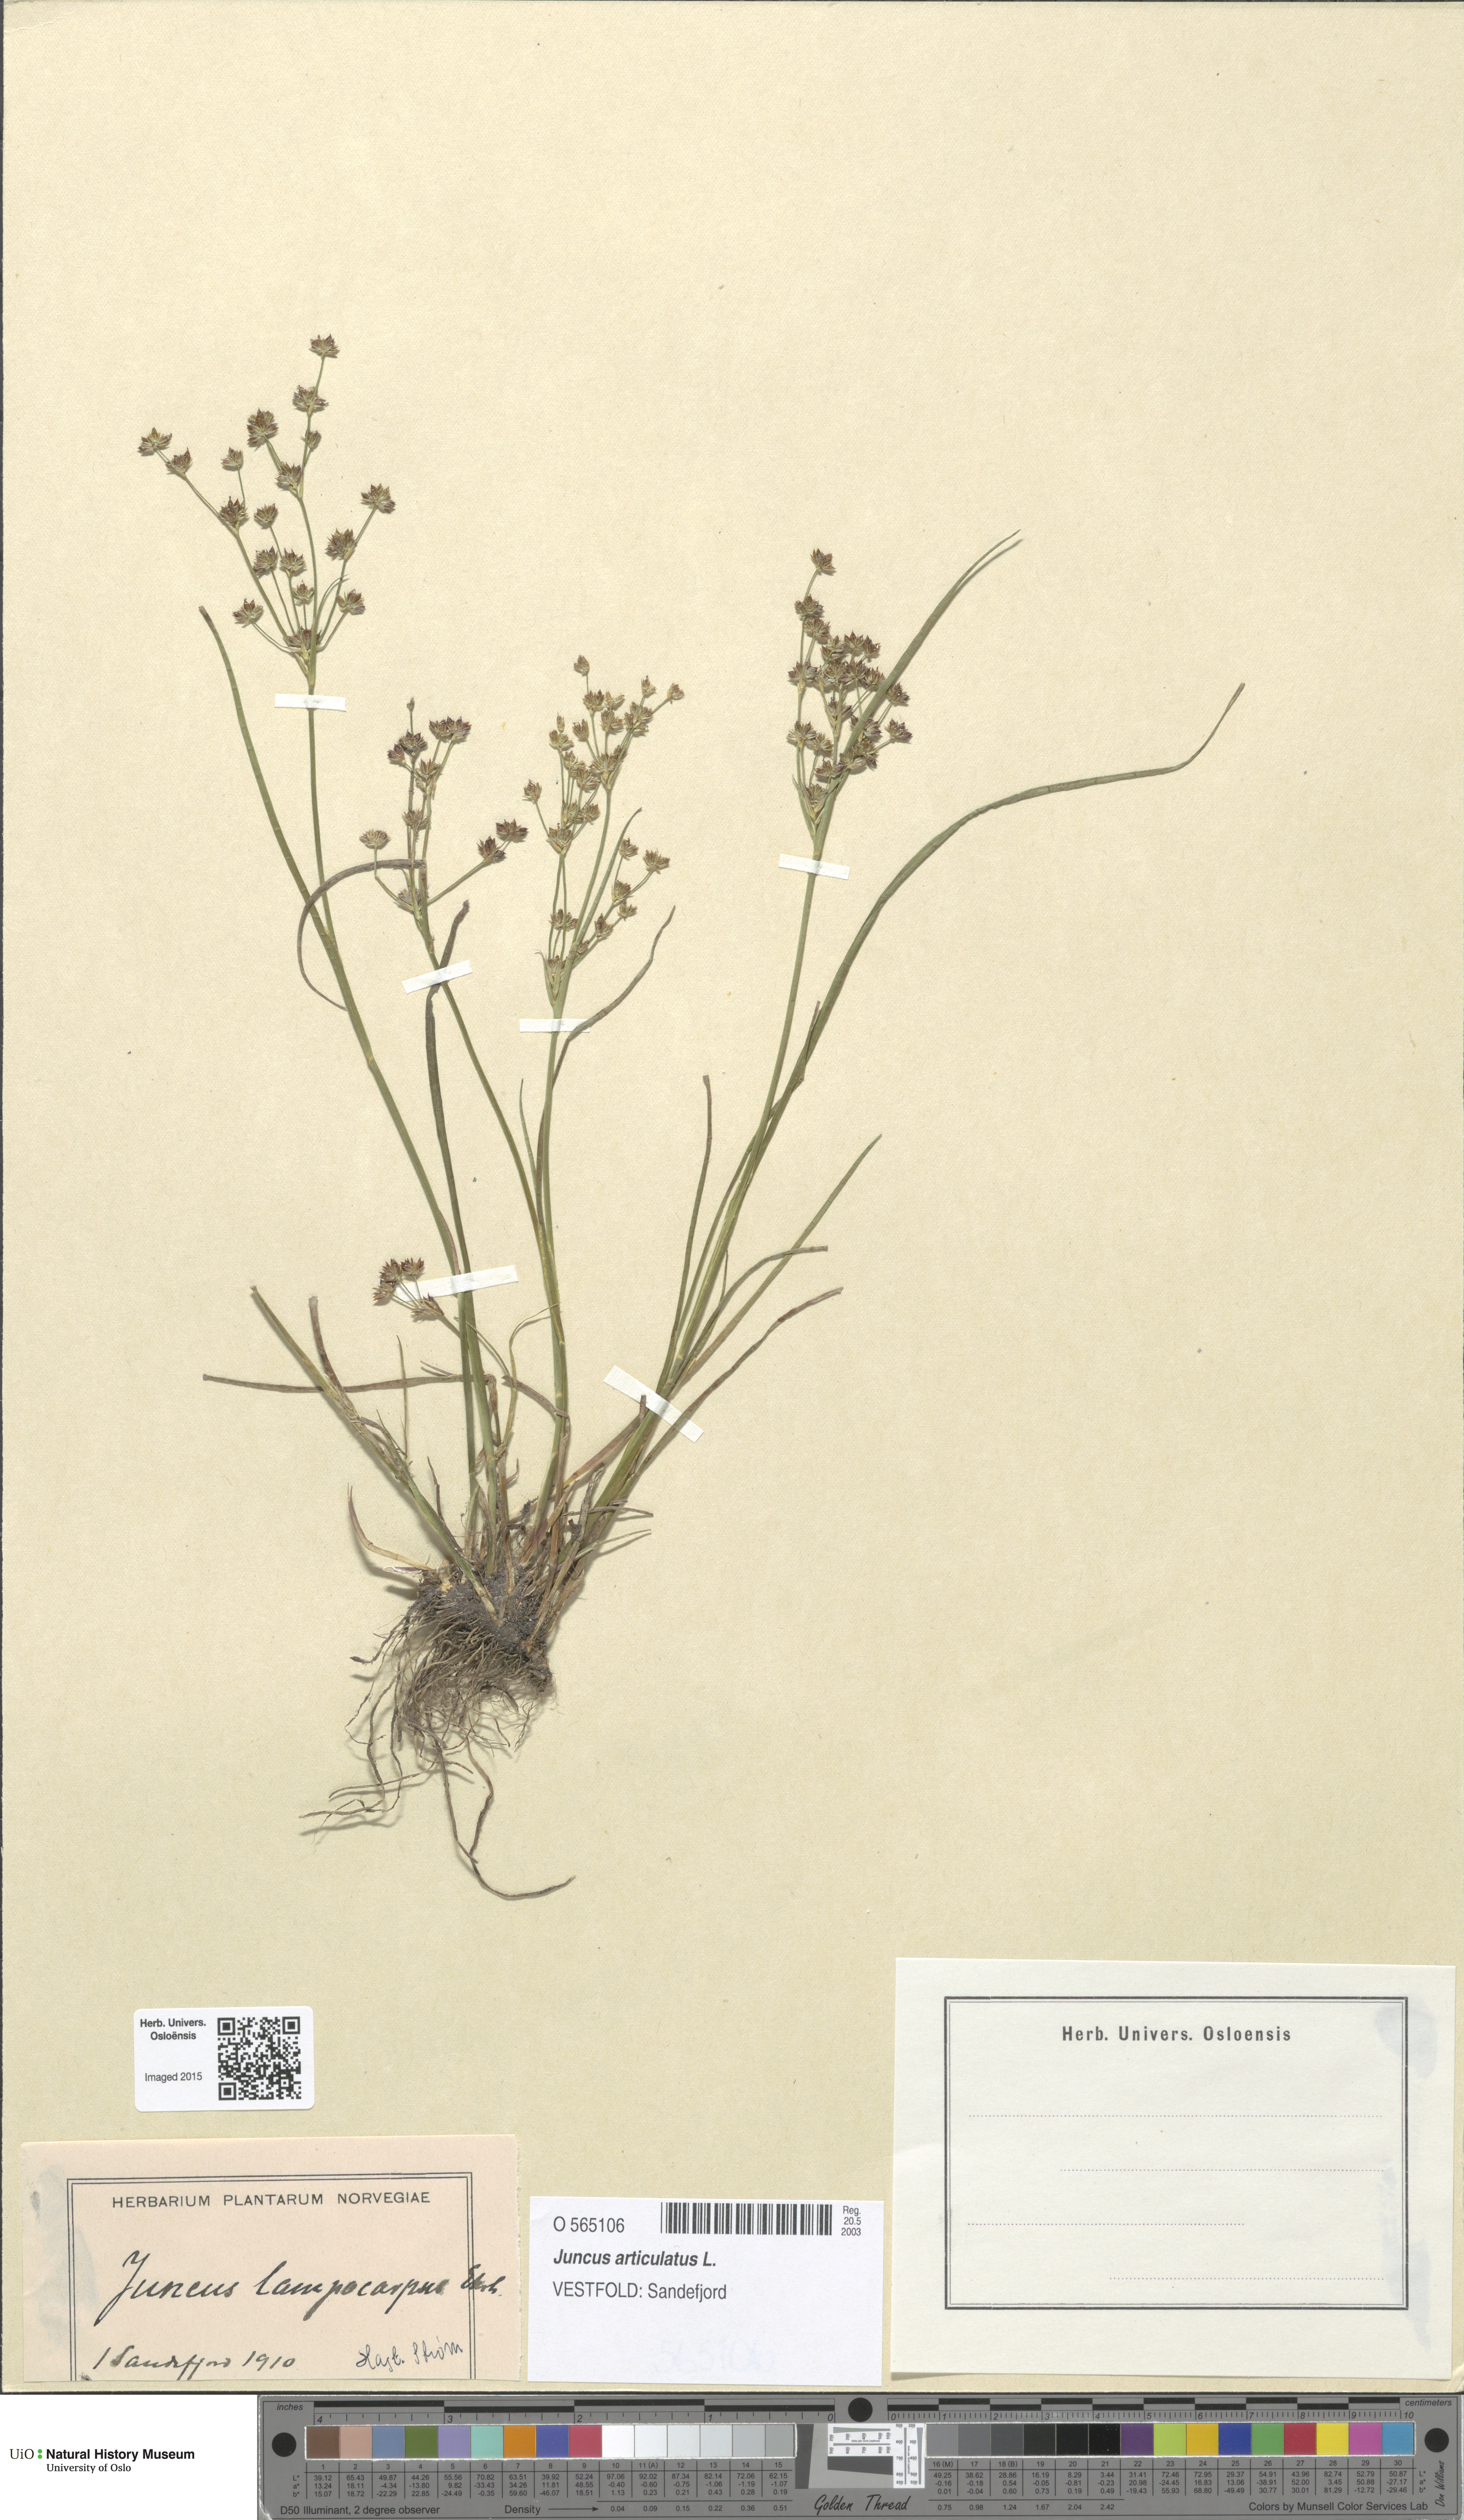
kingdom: Plantae
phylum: Tracheophyta
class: Liliopsida
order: Poales
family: Juncaceae
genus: Juncus
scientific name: Juncus articulatus
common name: Jointed rush
